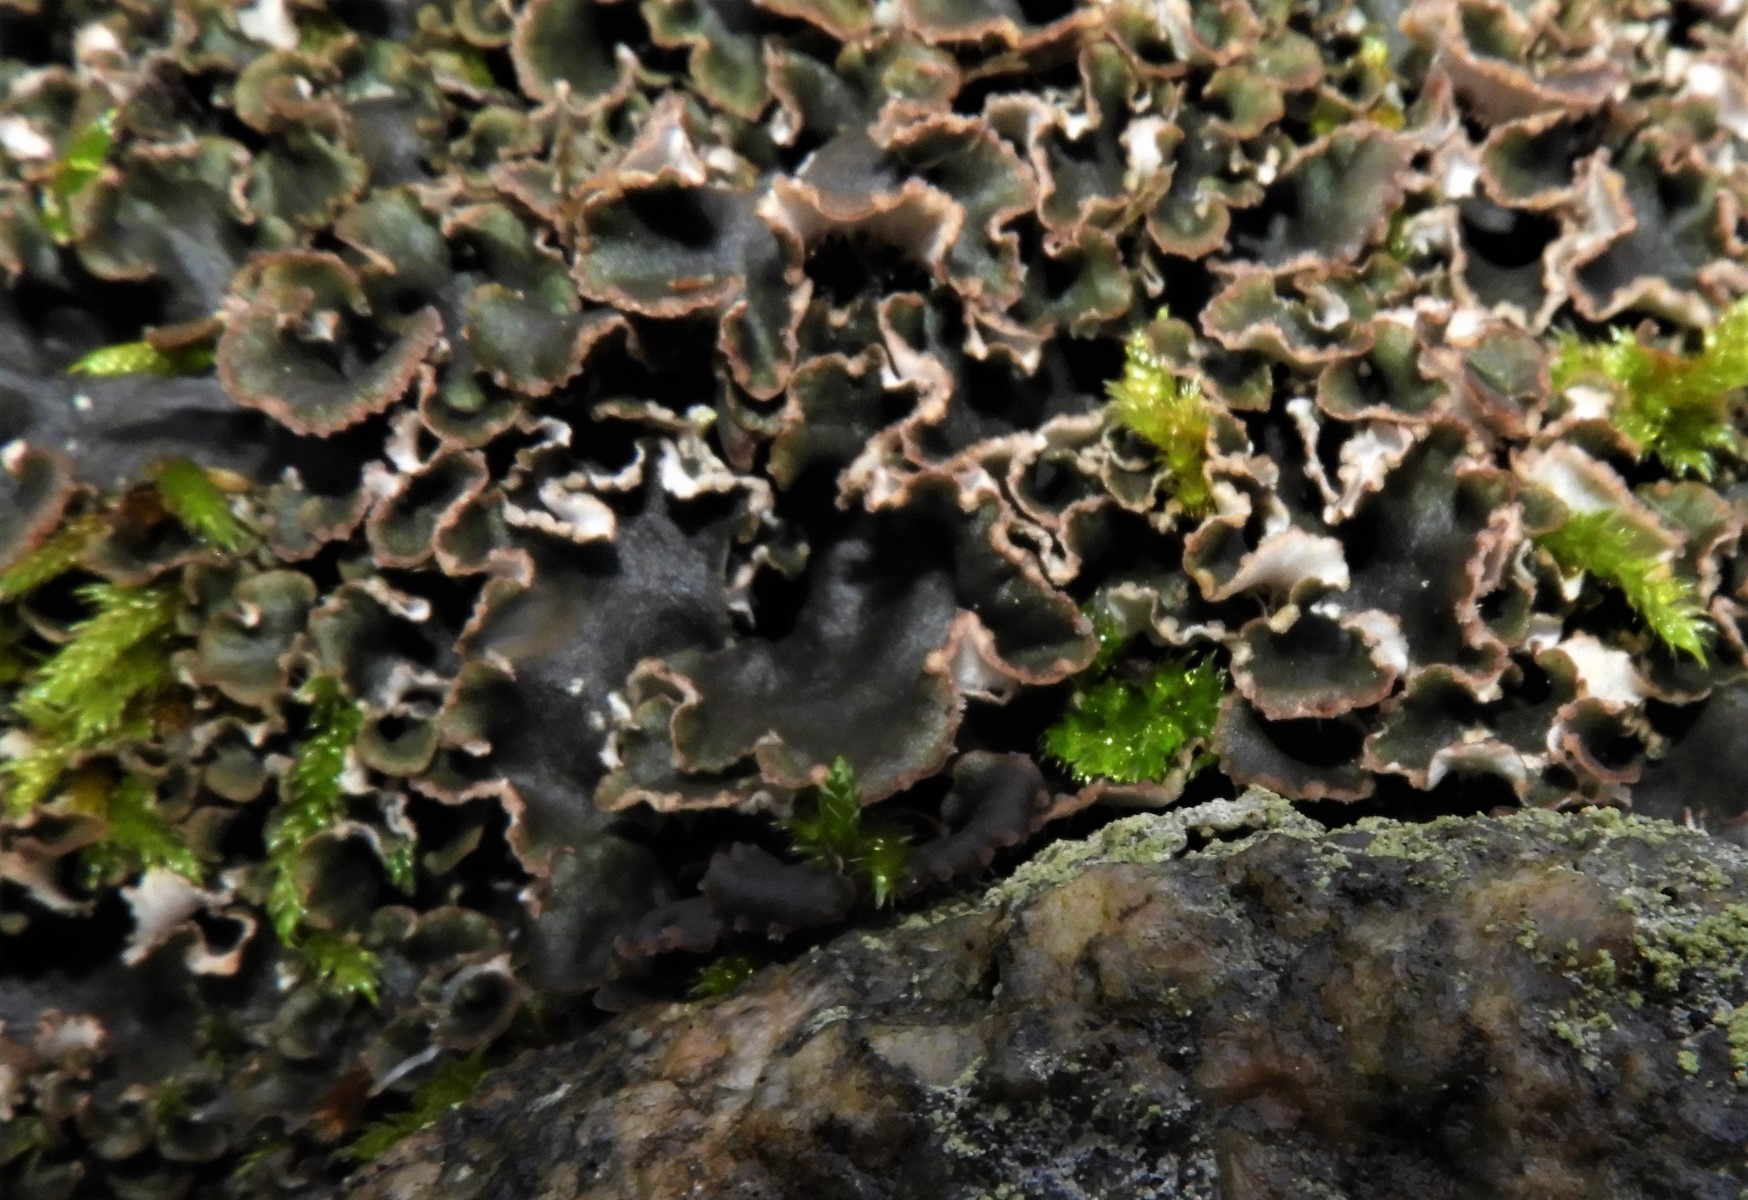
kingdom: Fungi
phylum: Ascomycota
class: Lecanoromycetes
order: Peltigerales
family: Peltigeraceae
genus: Peltigera
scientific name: Peltigera
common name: skjoldlav
